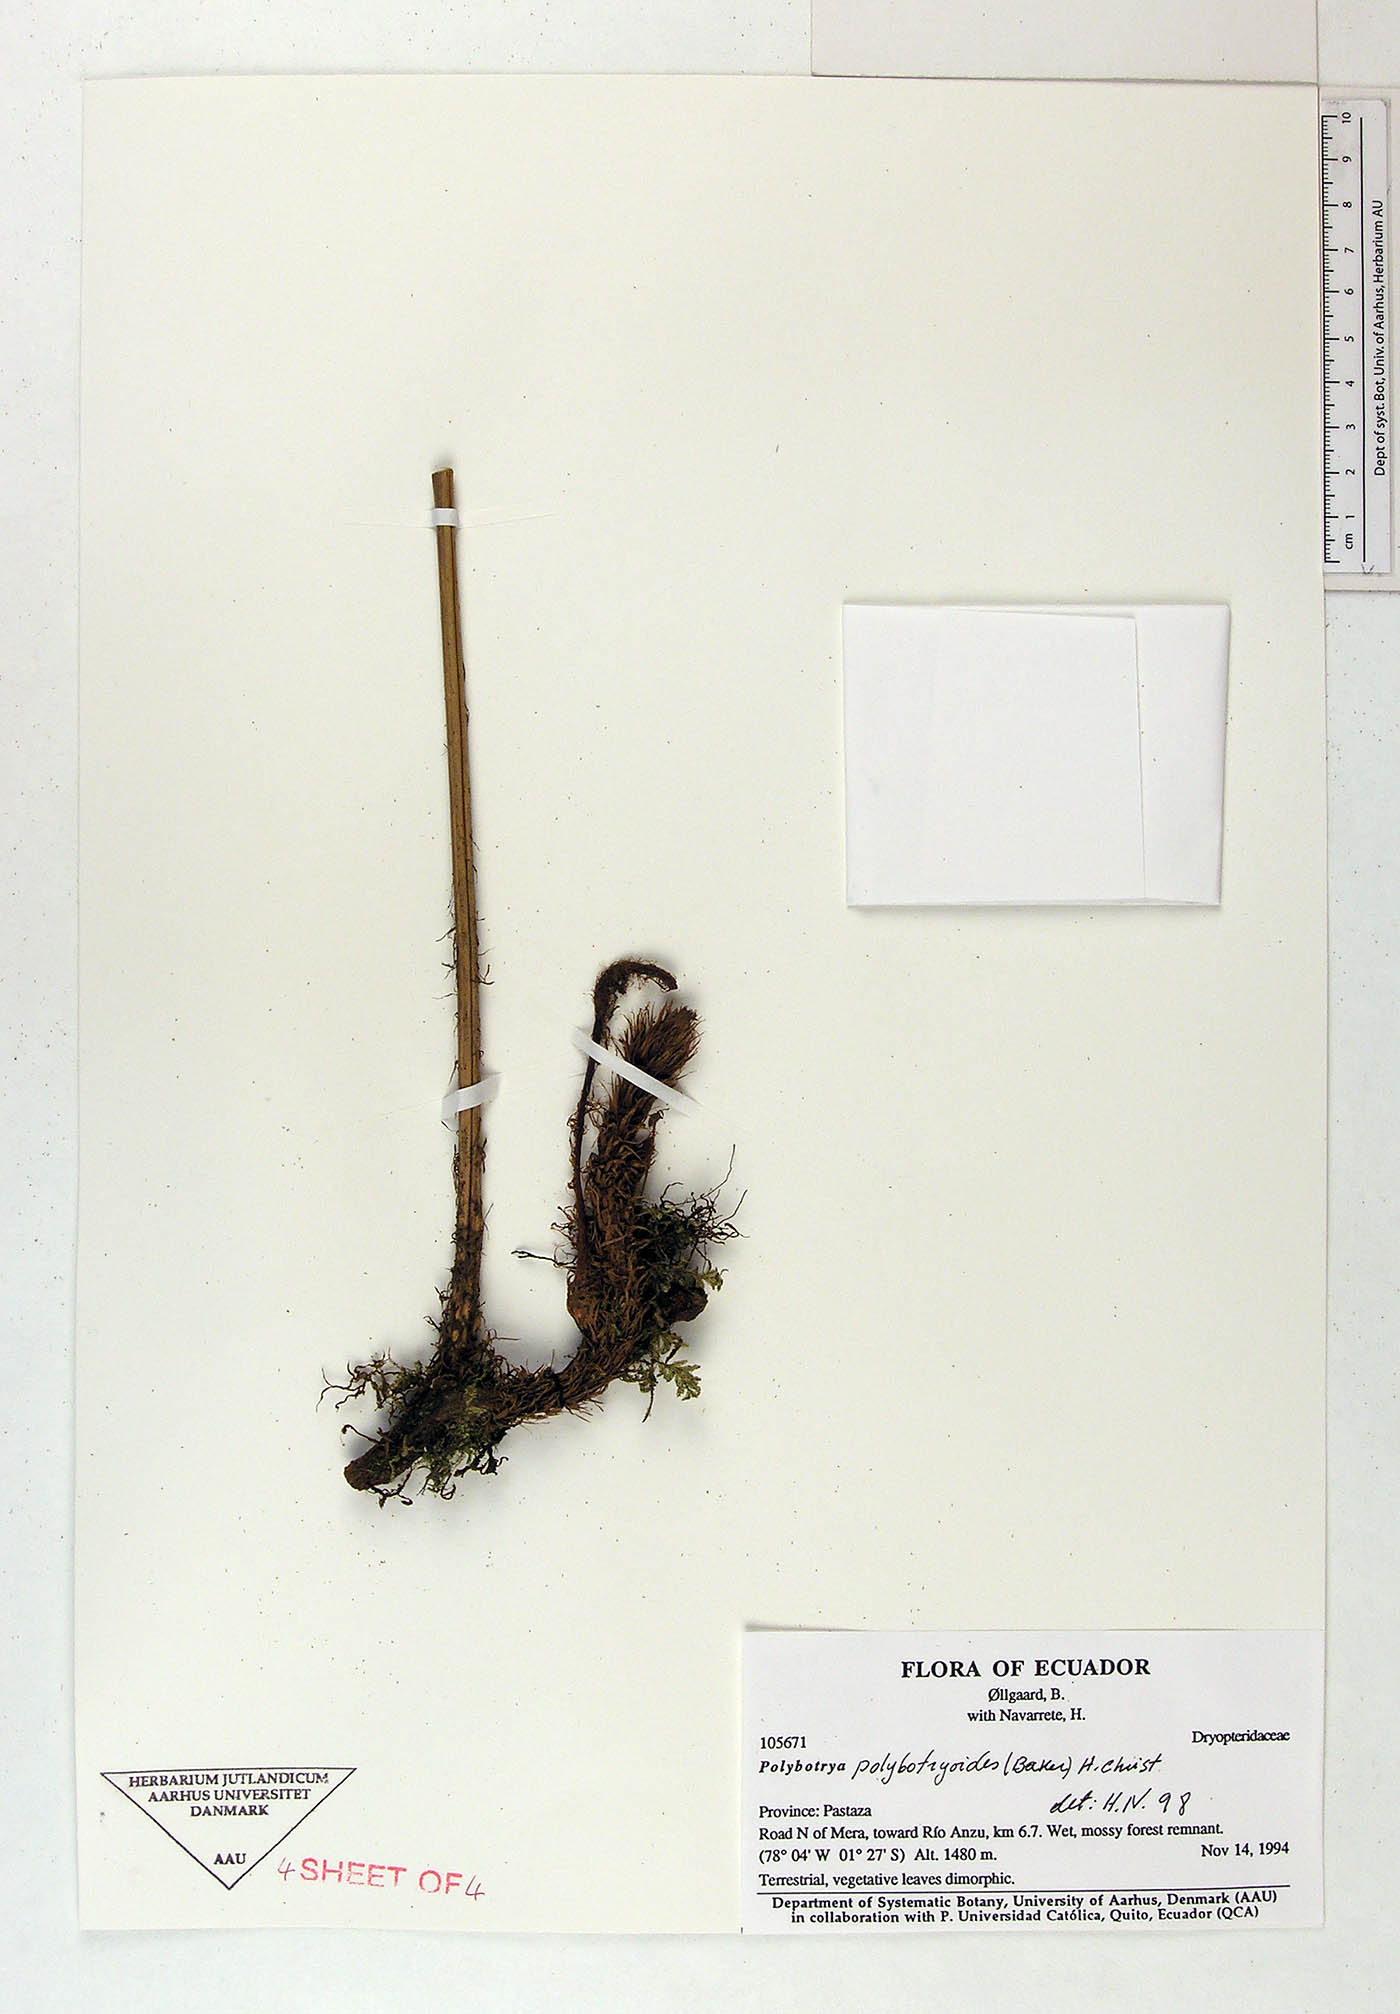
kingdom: Plantae
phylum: Tracheophyta
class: Polypodiopsida
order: Polypodiales
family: Dryopteridaceae
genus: Polybotrya
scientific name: Polybotrya polybotryoides
